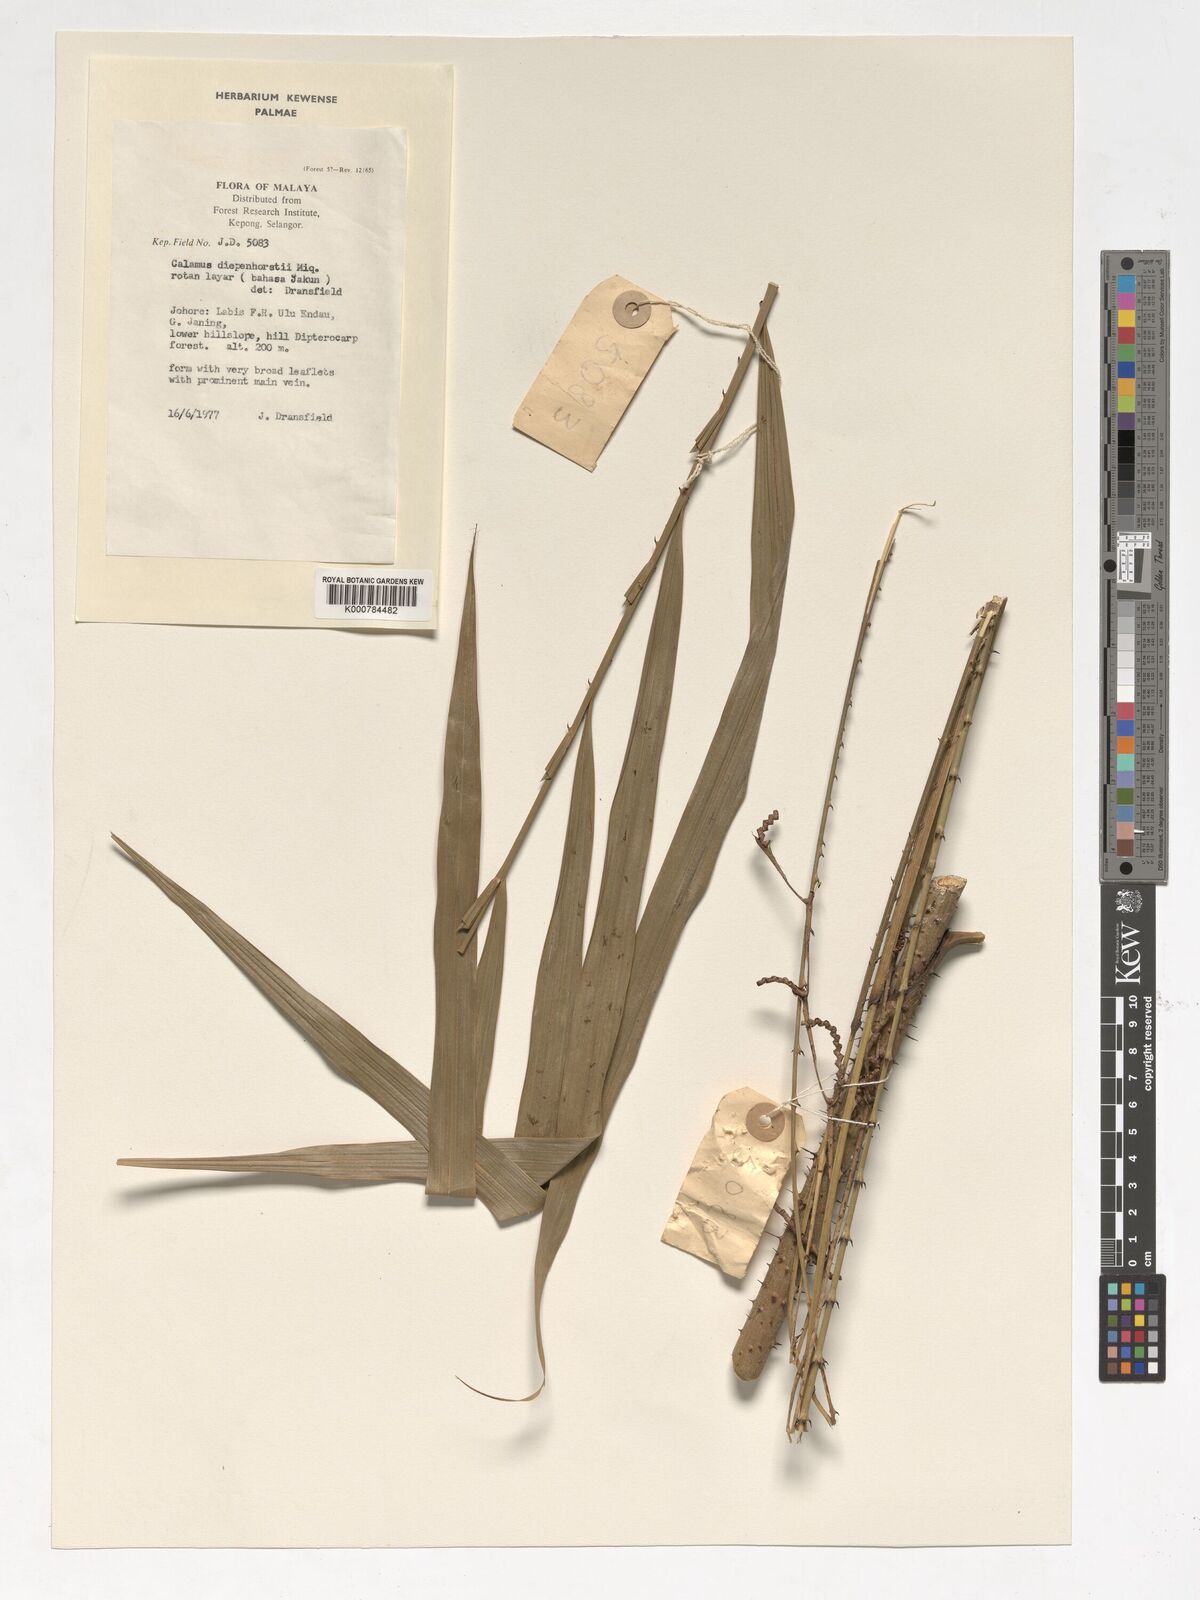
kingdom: Plantae
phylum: Tracheophyta
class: Liliopsida
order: Arecales
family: Arecaceae
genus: Calamus
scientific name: Calamus diepenhorstii
